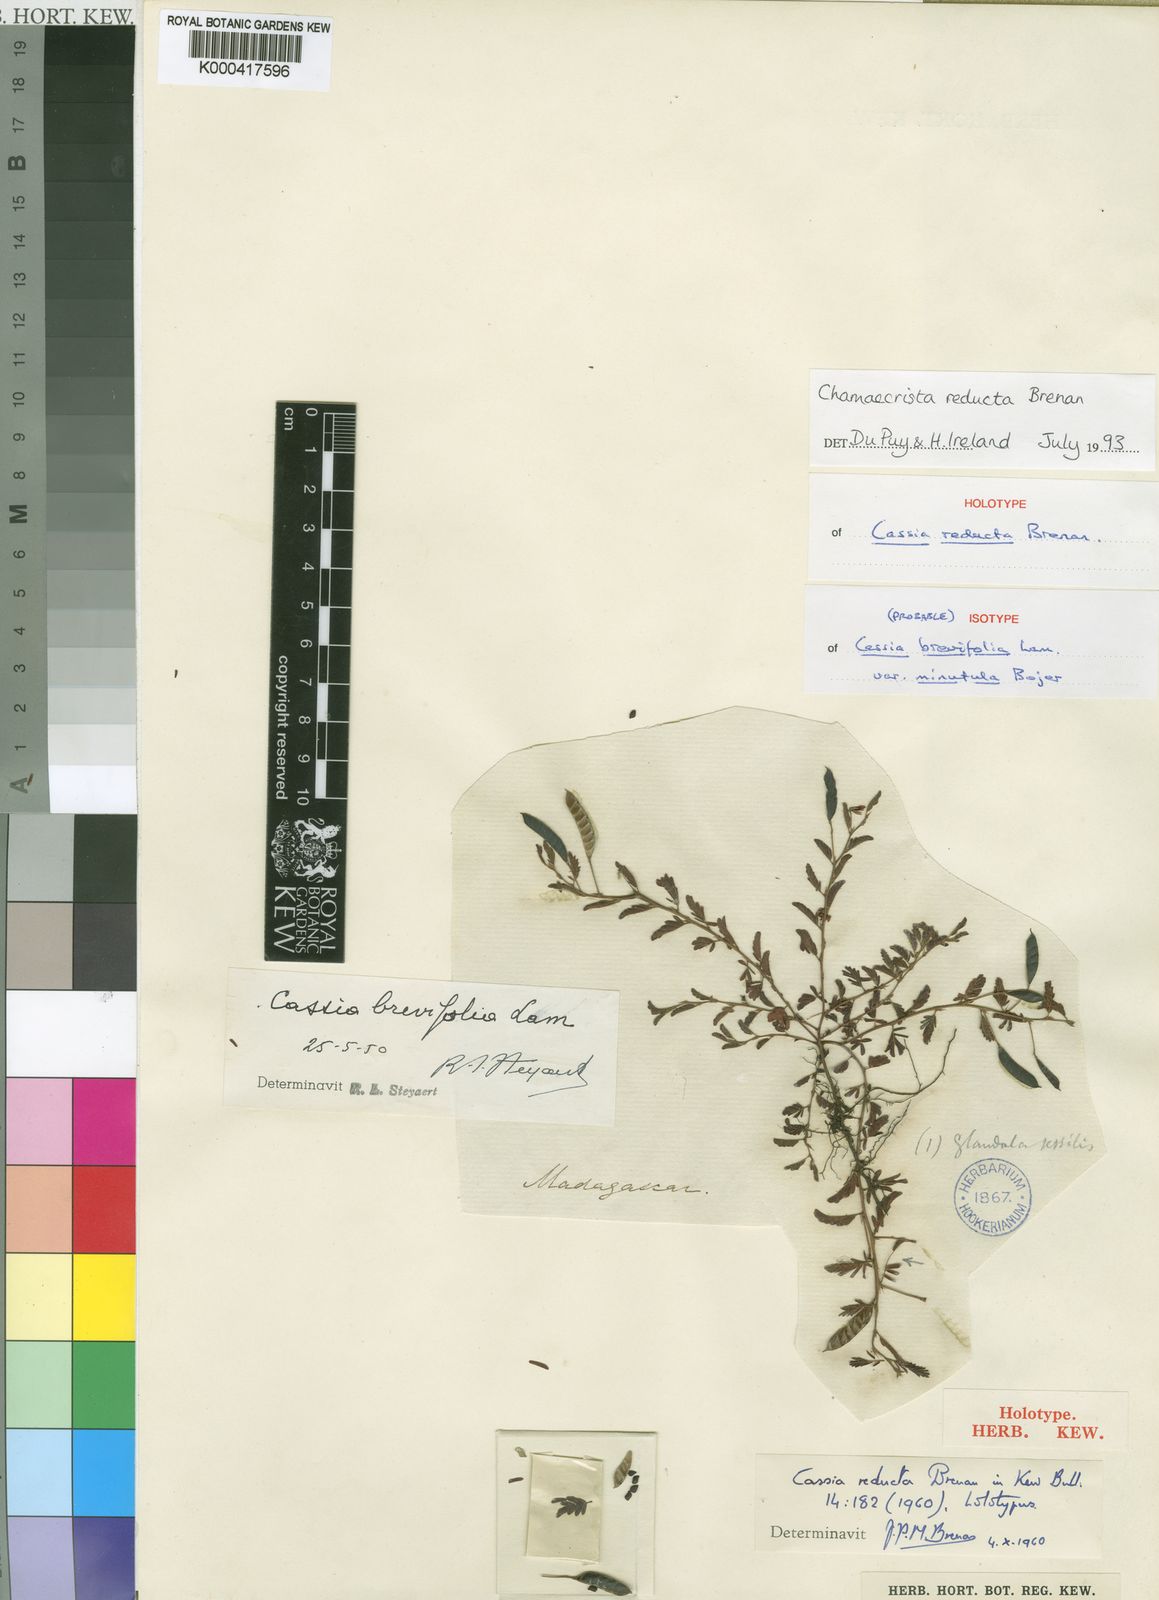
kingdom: Plantae
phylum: Tracheophyta
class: Magnoliopsida
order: Fabales
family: Fabaceae
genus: Chamaecrista
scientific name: Chamaecrista reducta
